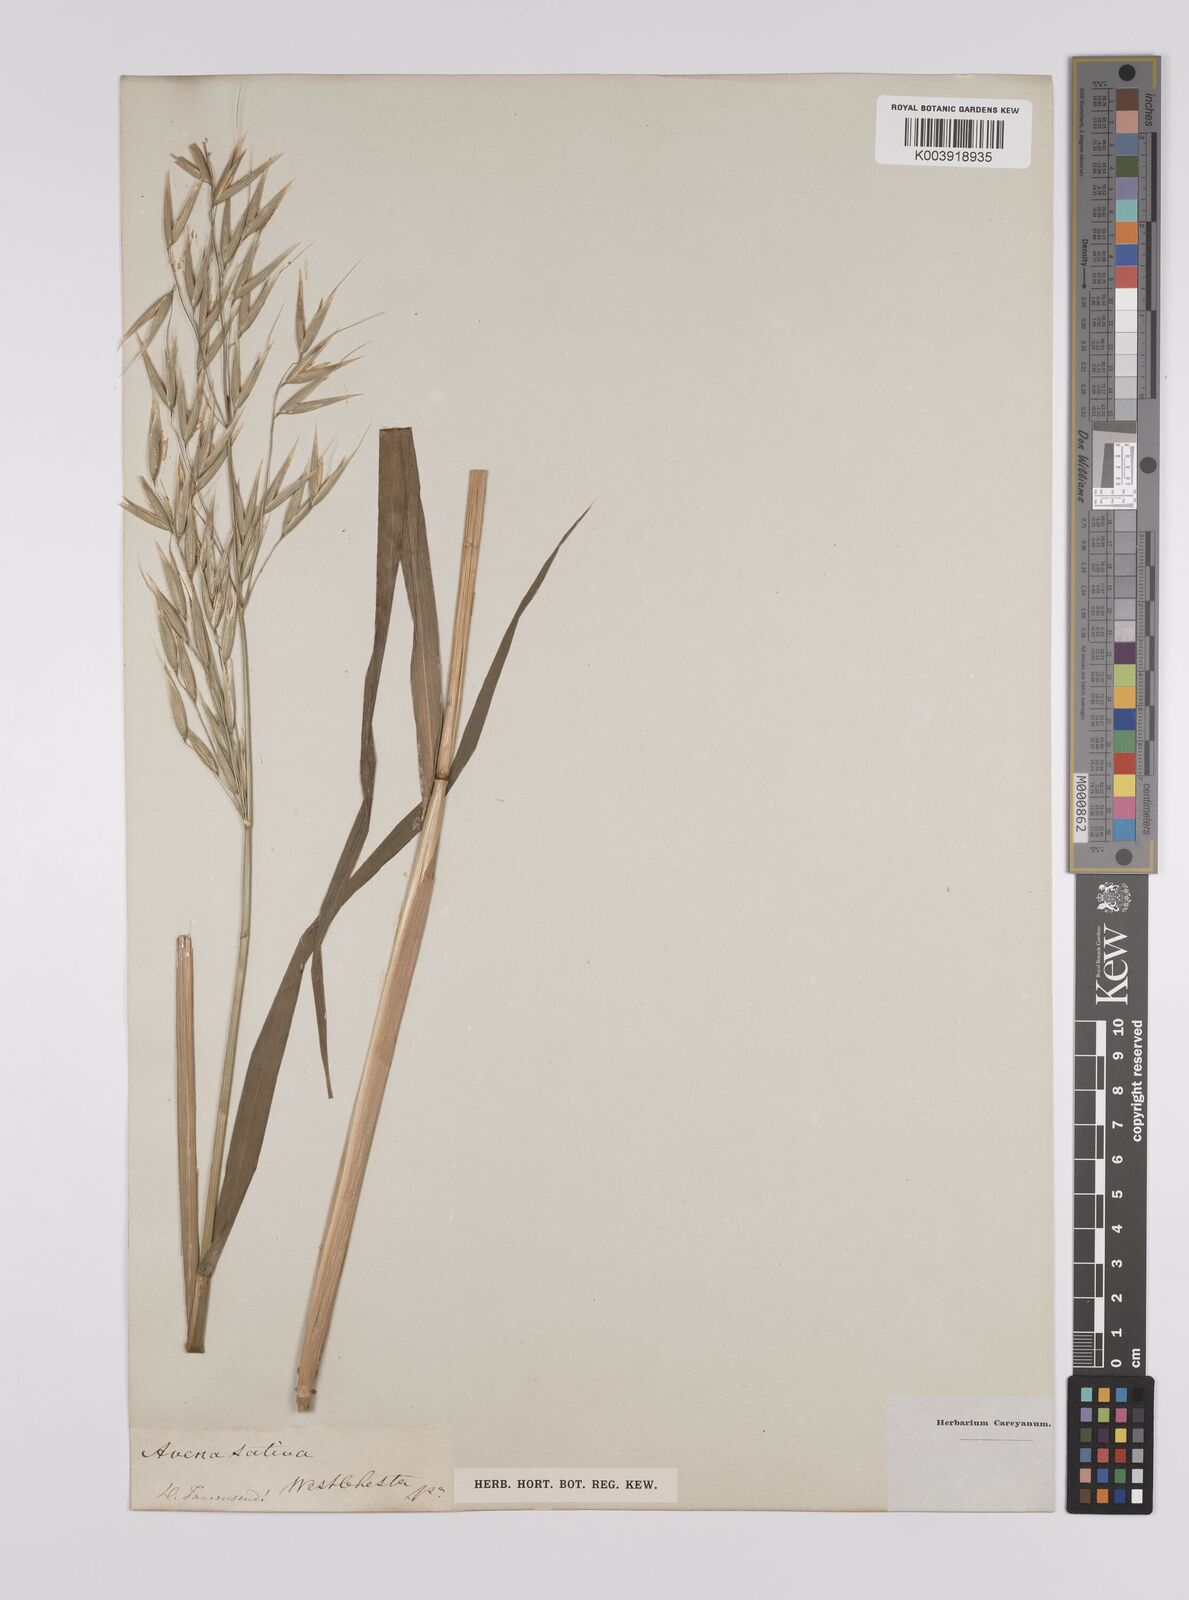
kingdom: Plantae
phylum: Tracheophyta
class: Liliopsida
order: Poales
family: Poaceae
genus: Avena
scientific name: Avena fatua
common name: Wild oat
